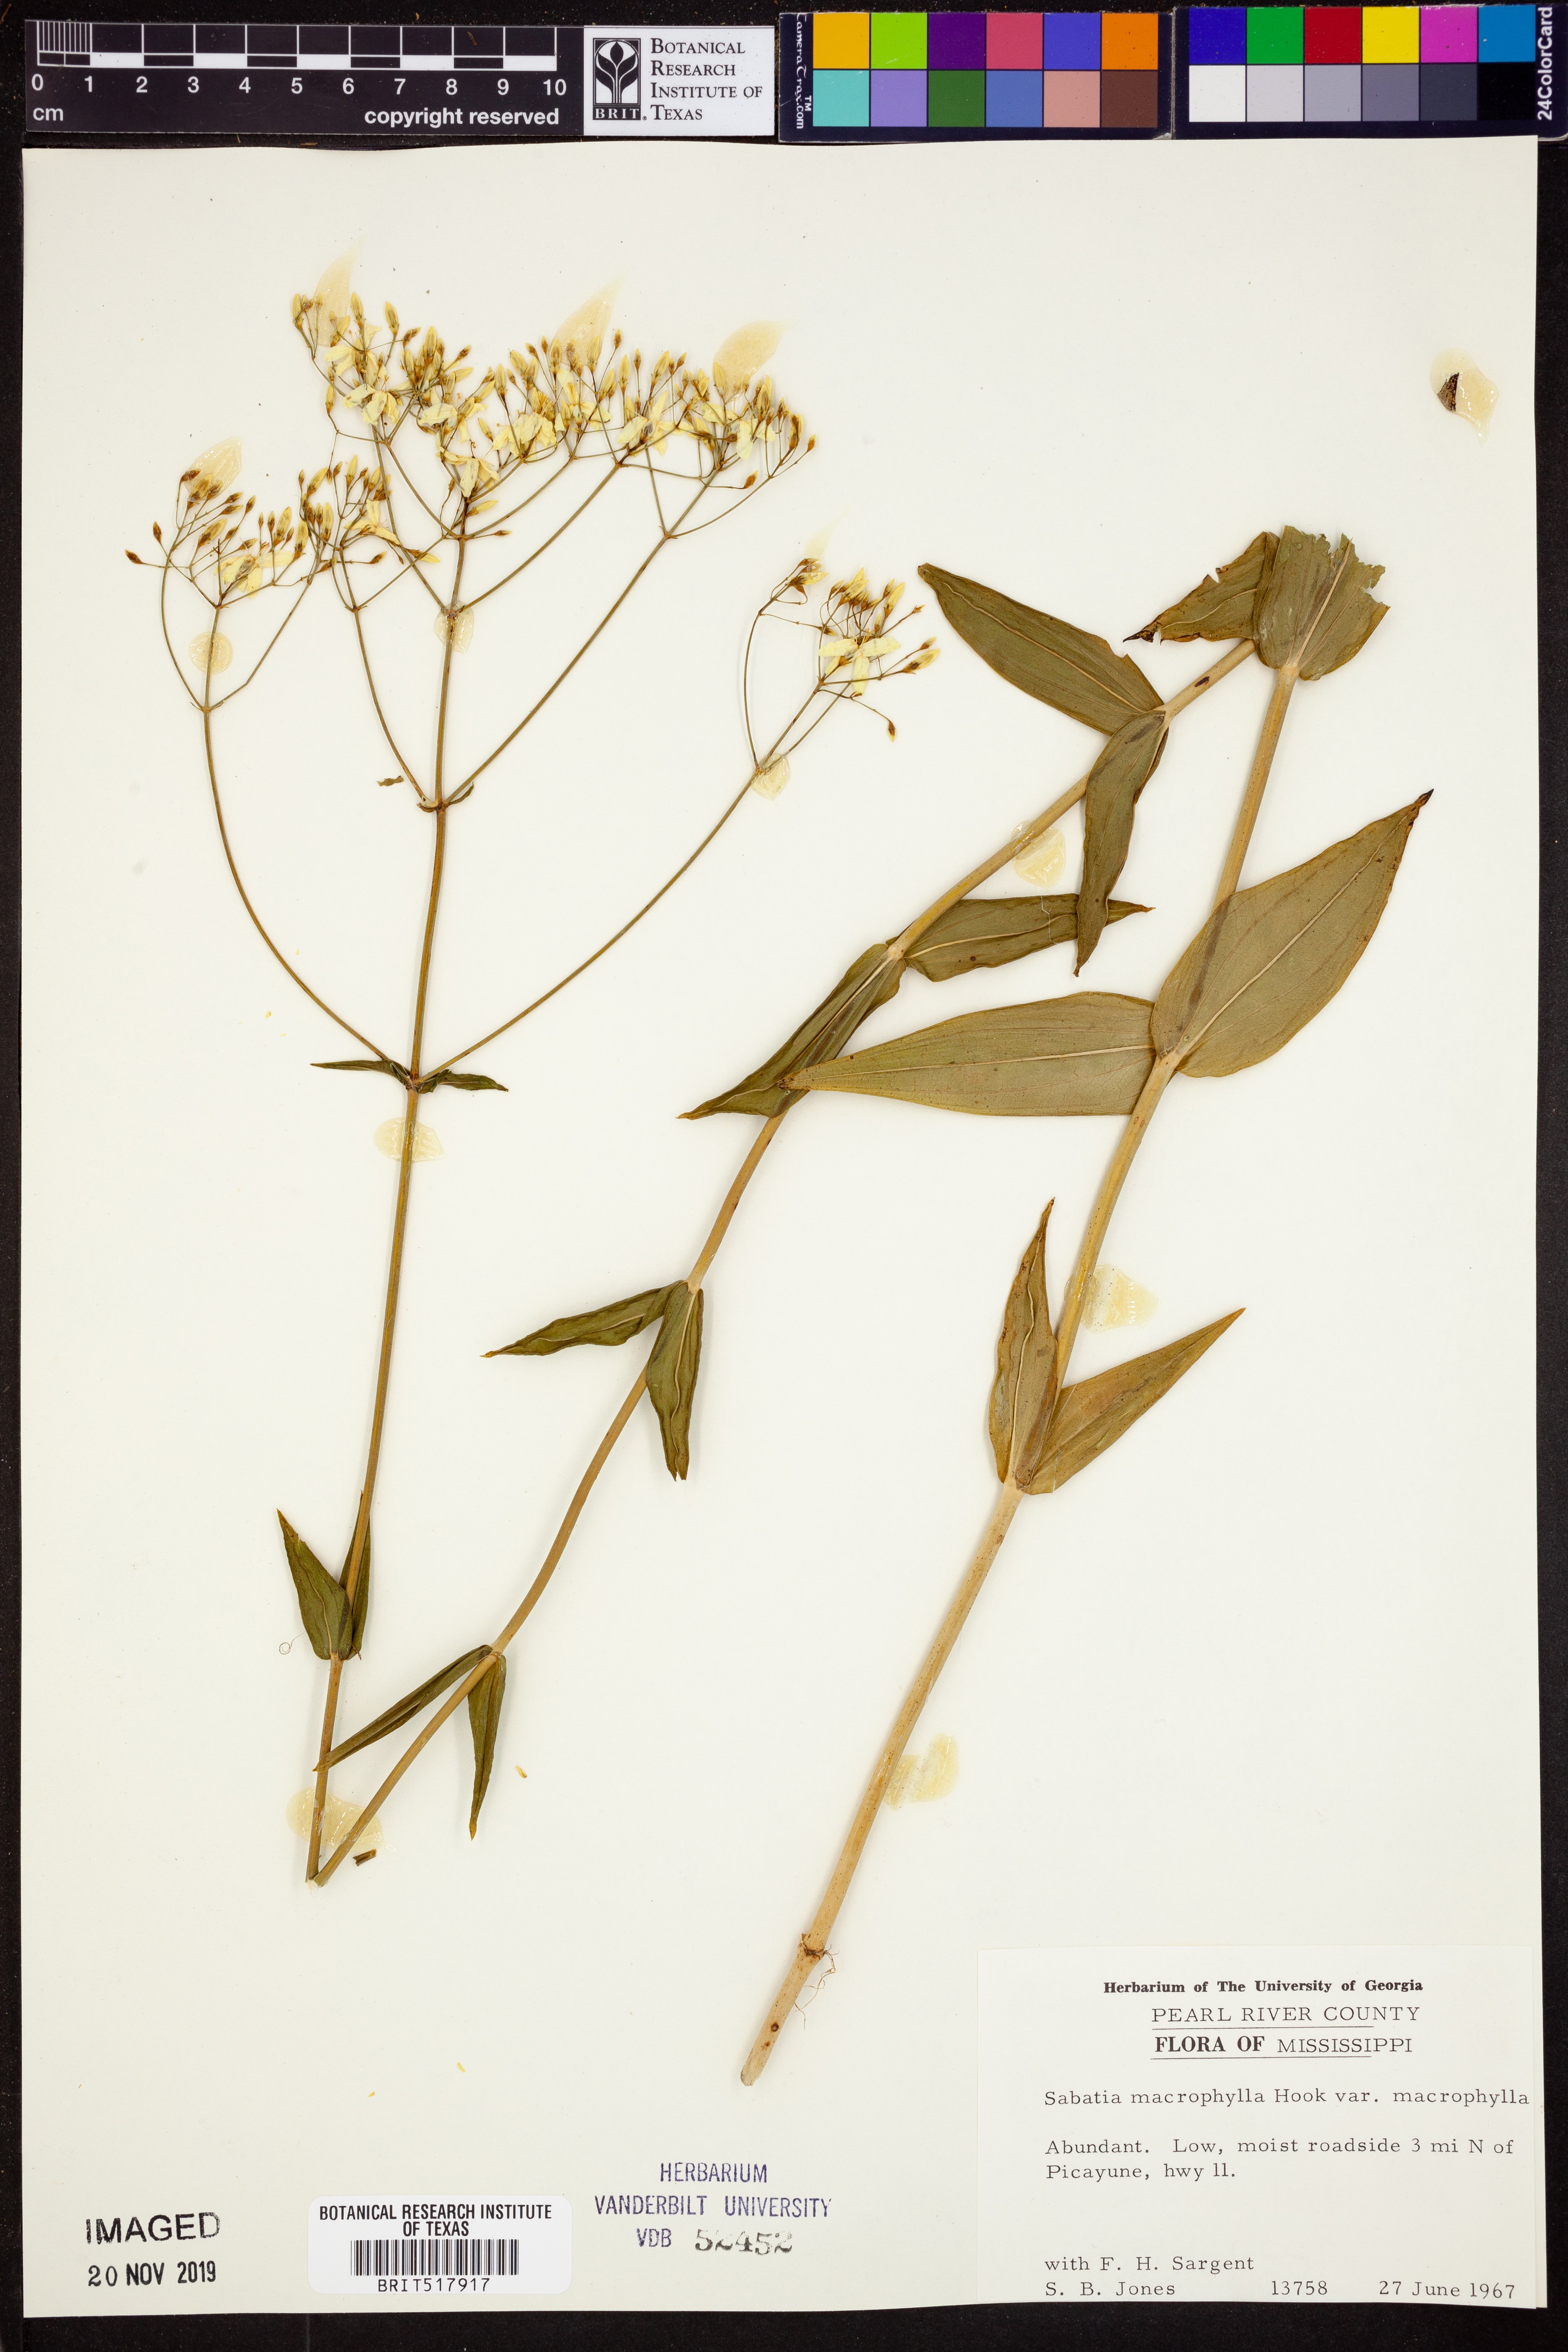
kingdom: Plantae
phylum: Tracheophyta
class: Magnoliopsida
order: Gentianales
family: Gentianaceae
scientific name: Gentianaceae
